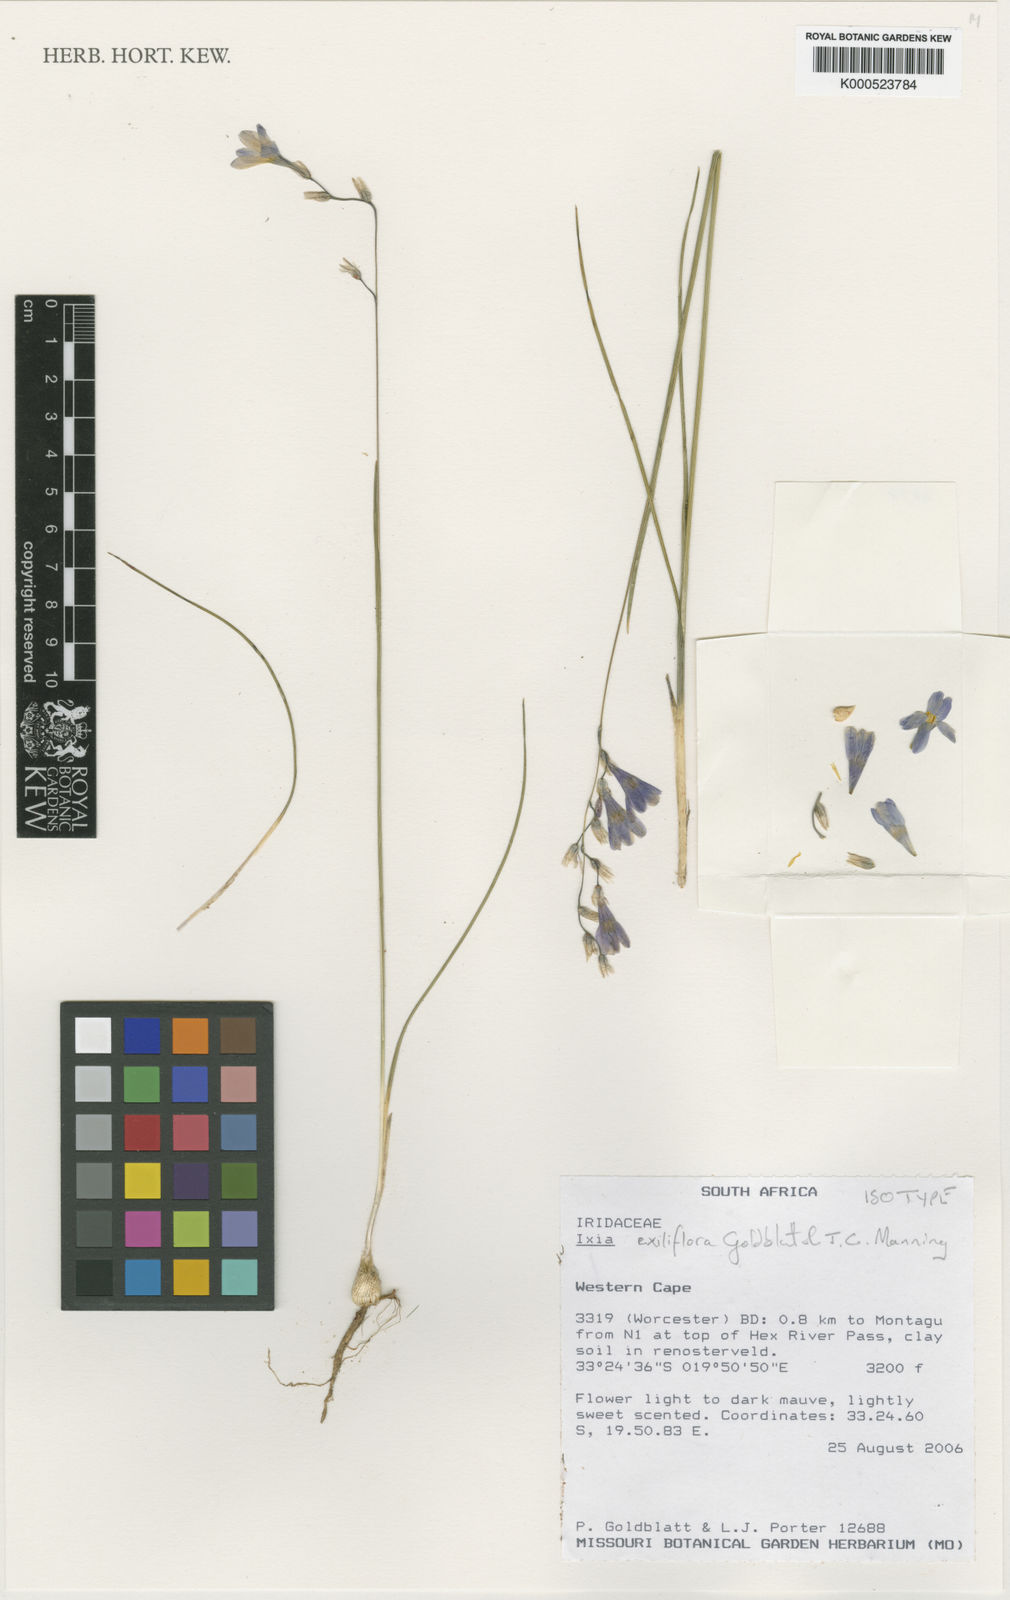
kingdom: Plantae
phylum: Tracheophyta
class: Liliopsida
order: Asparagales
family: Iridaceae
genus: Ixia
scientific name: Ixia exiliflora
